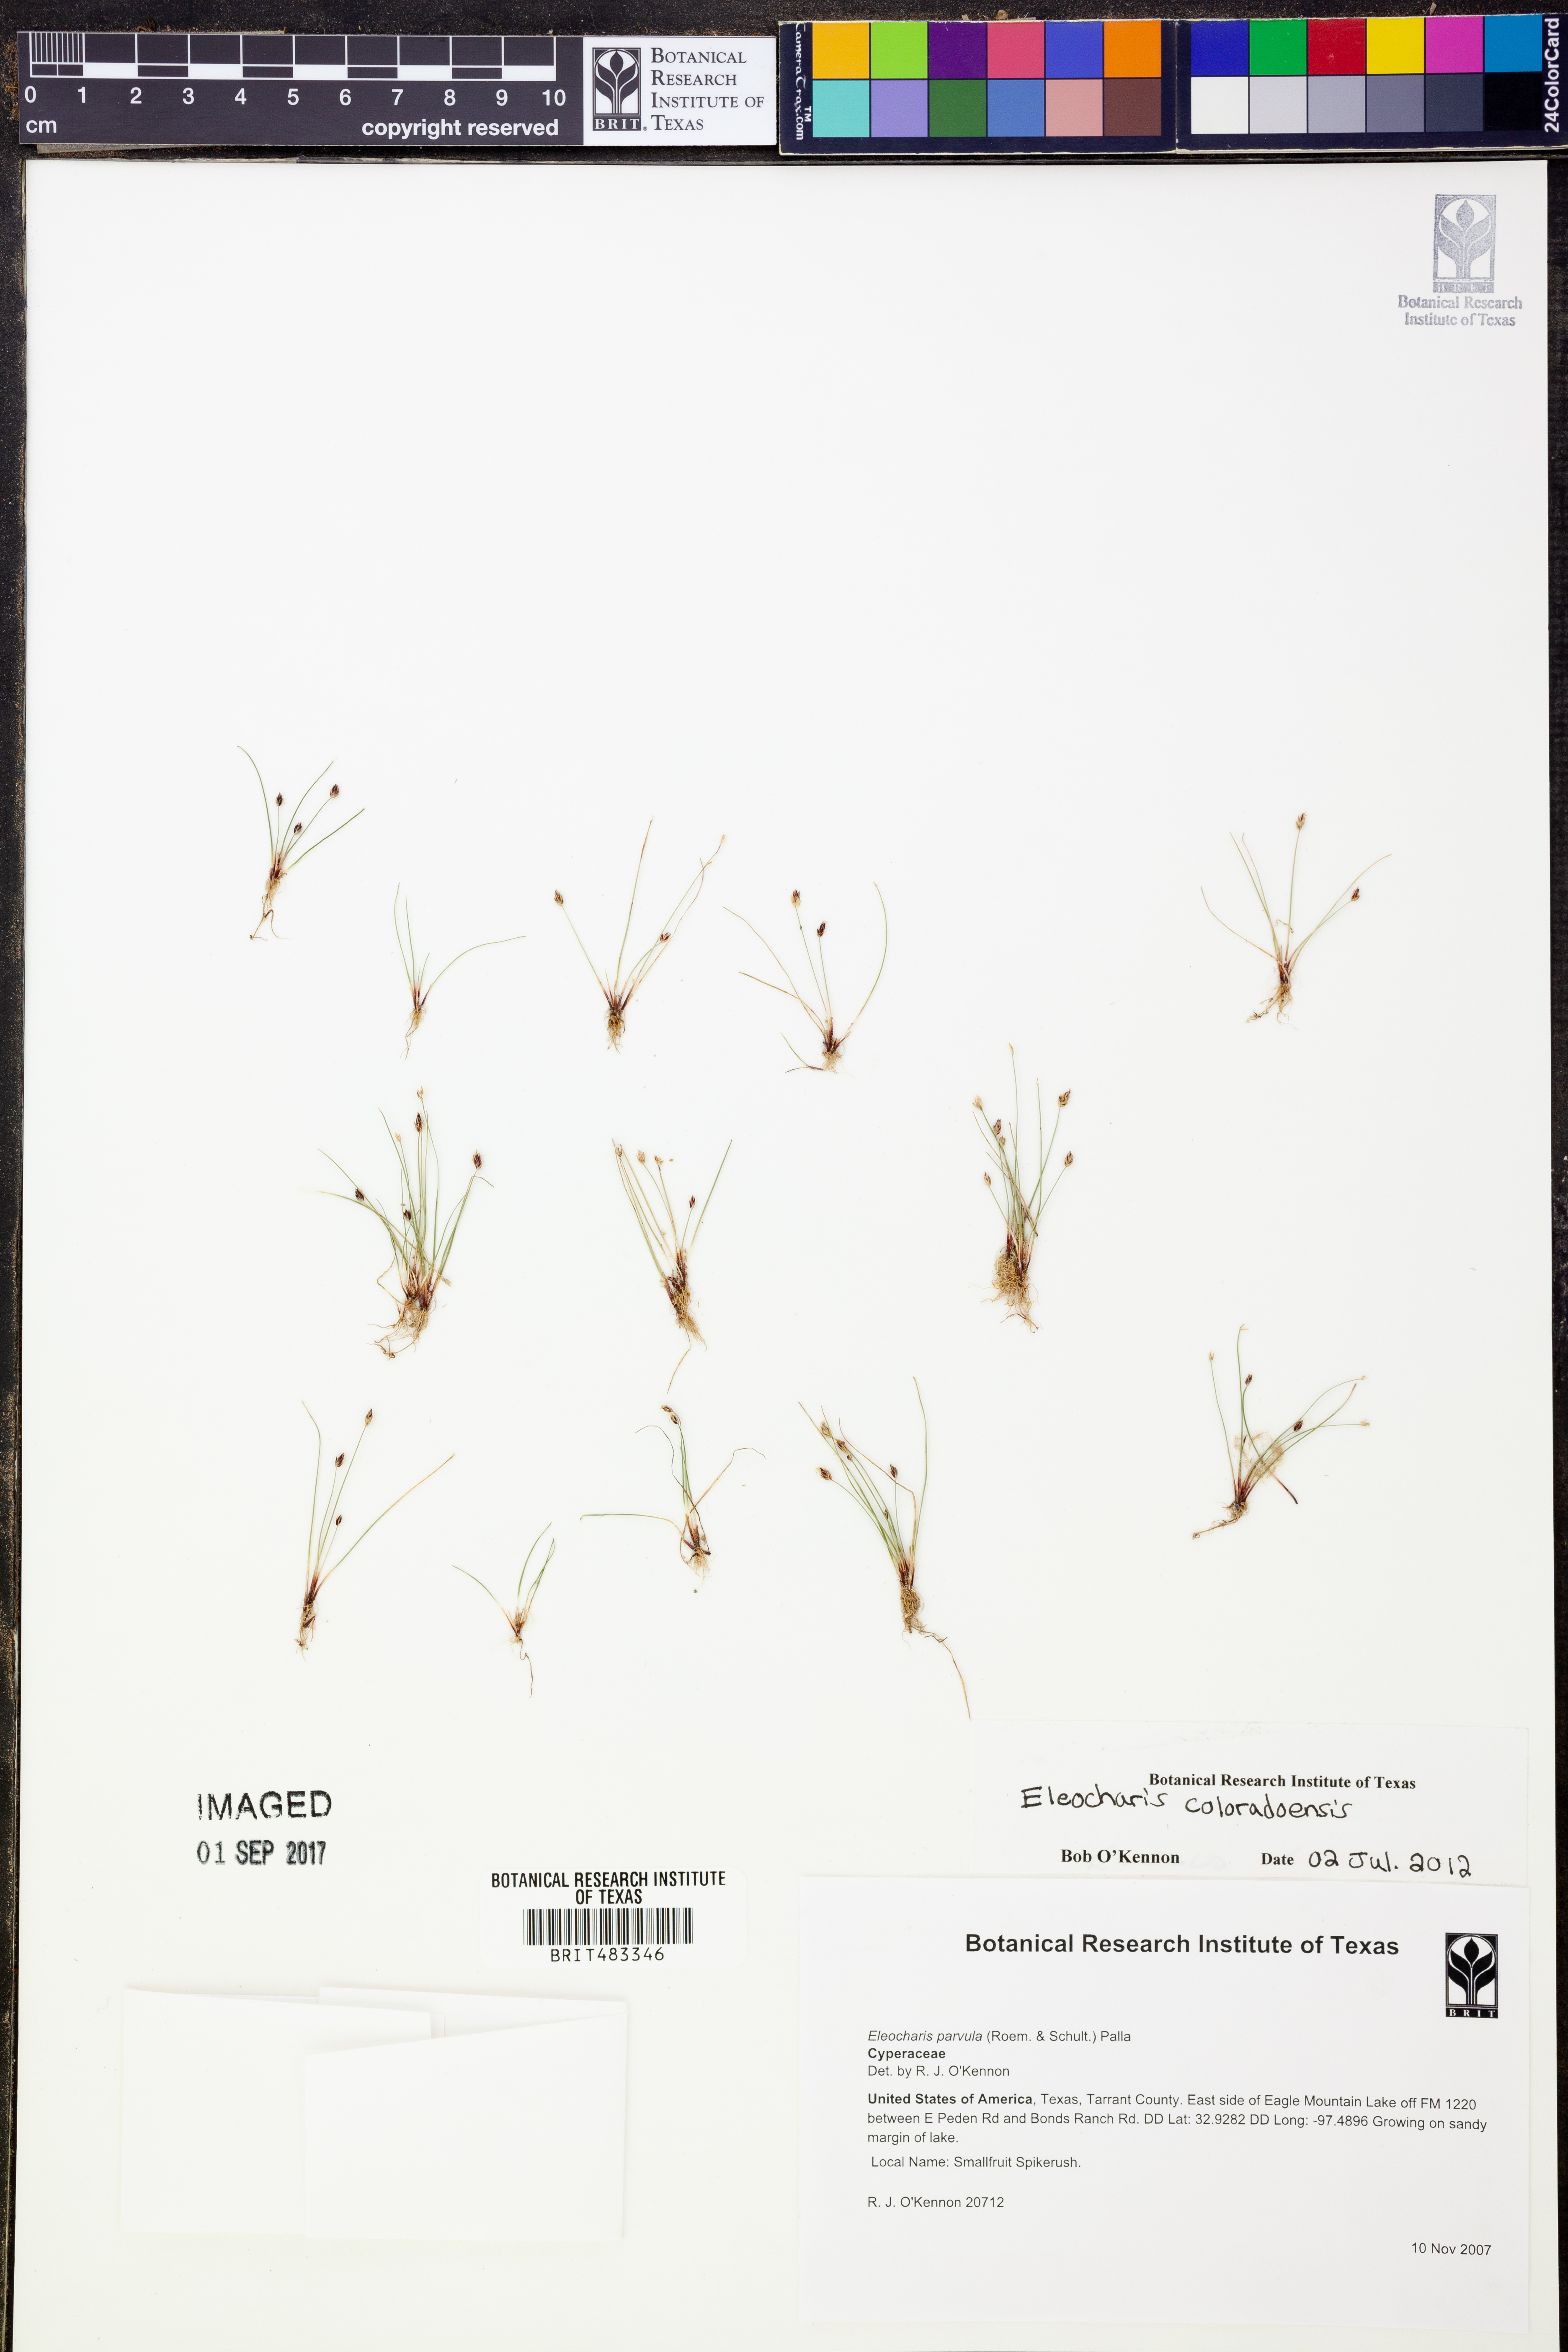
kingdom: Plantae
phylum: Tracheophyta
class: Liliopsida
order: Poales
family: Cyperaceae
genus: Eleocharis
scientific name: Eleocharis coloradoensis
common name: Colorado spikerush
